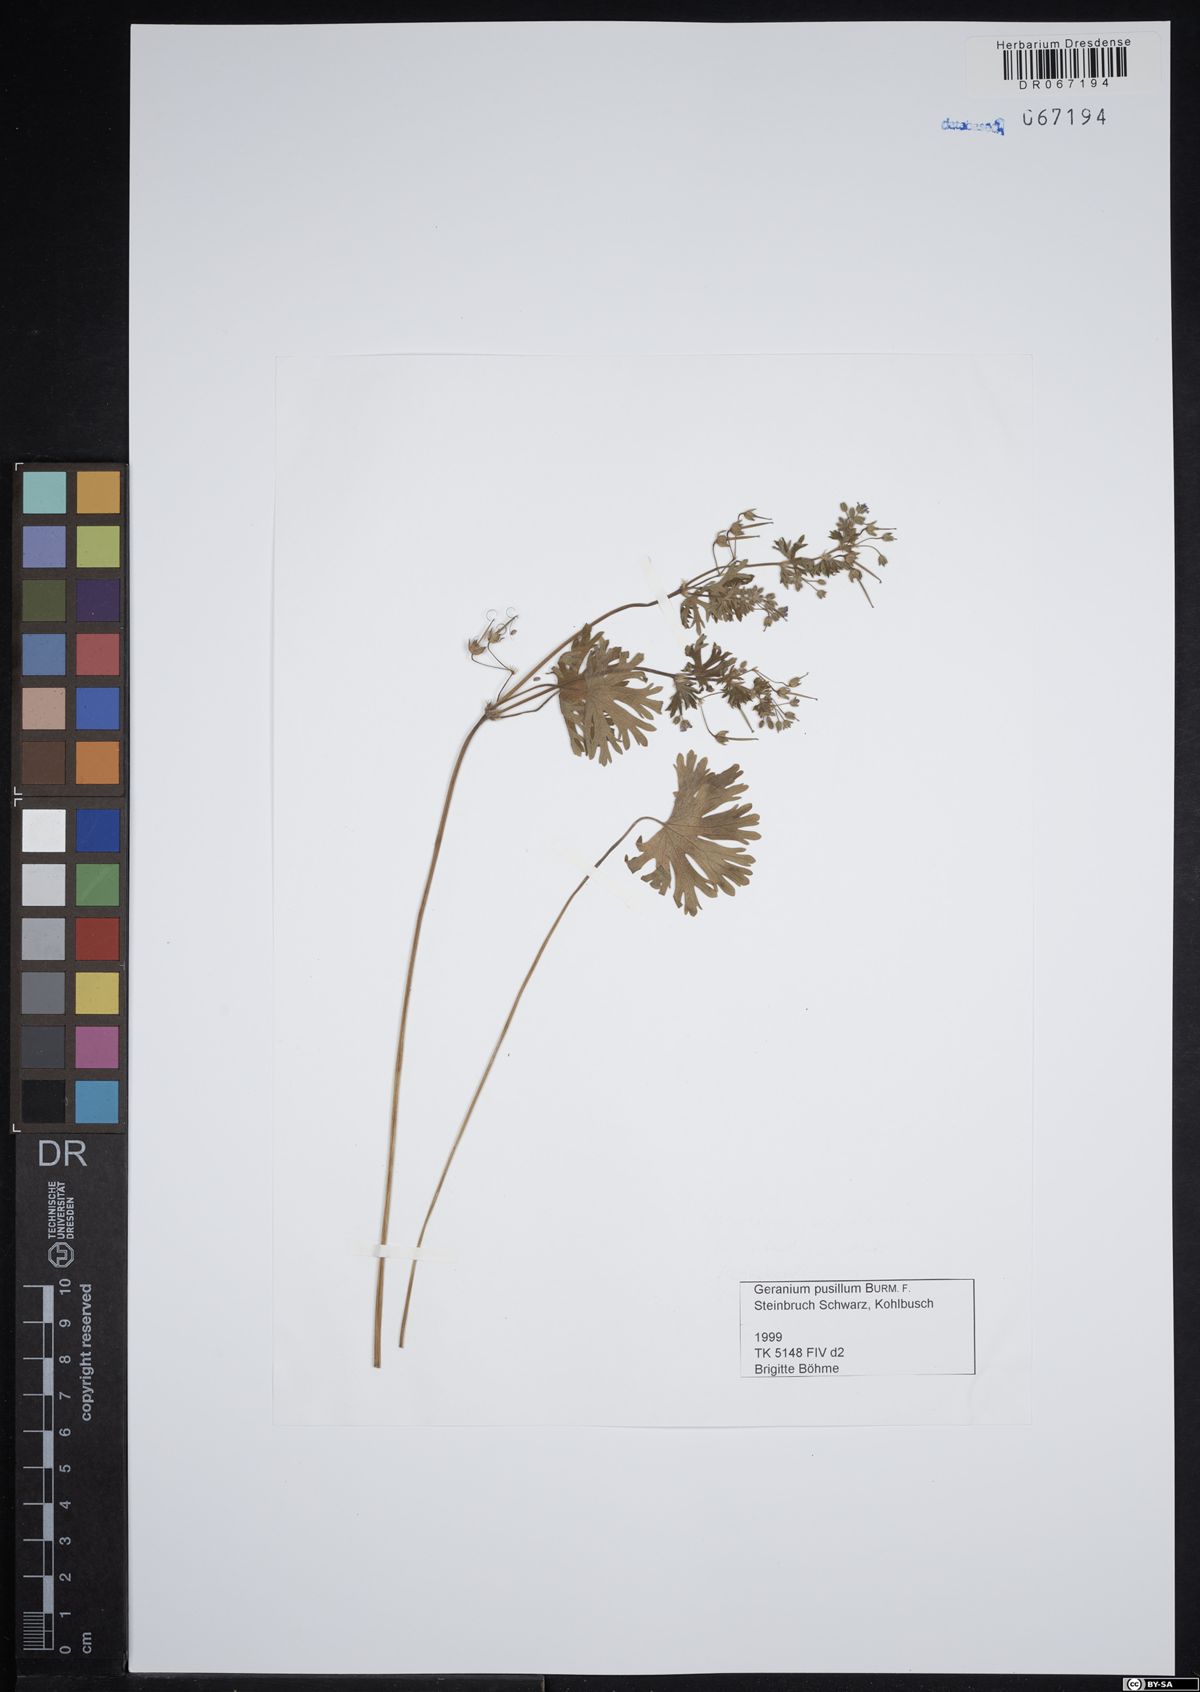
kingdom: Plantae
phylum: Tracheophyta
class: Magnoliopsida
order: Geraniales
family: Geraniaceae
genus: Geranium
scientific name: Geranium pusillum
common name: Small geranium
